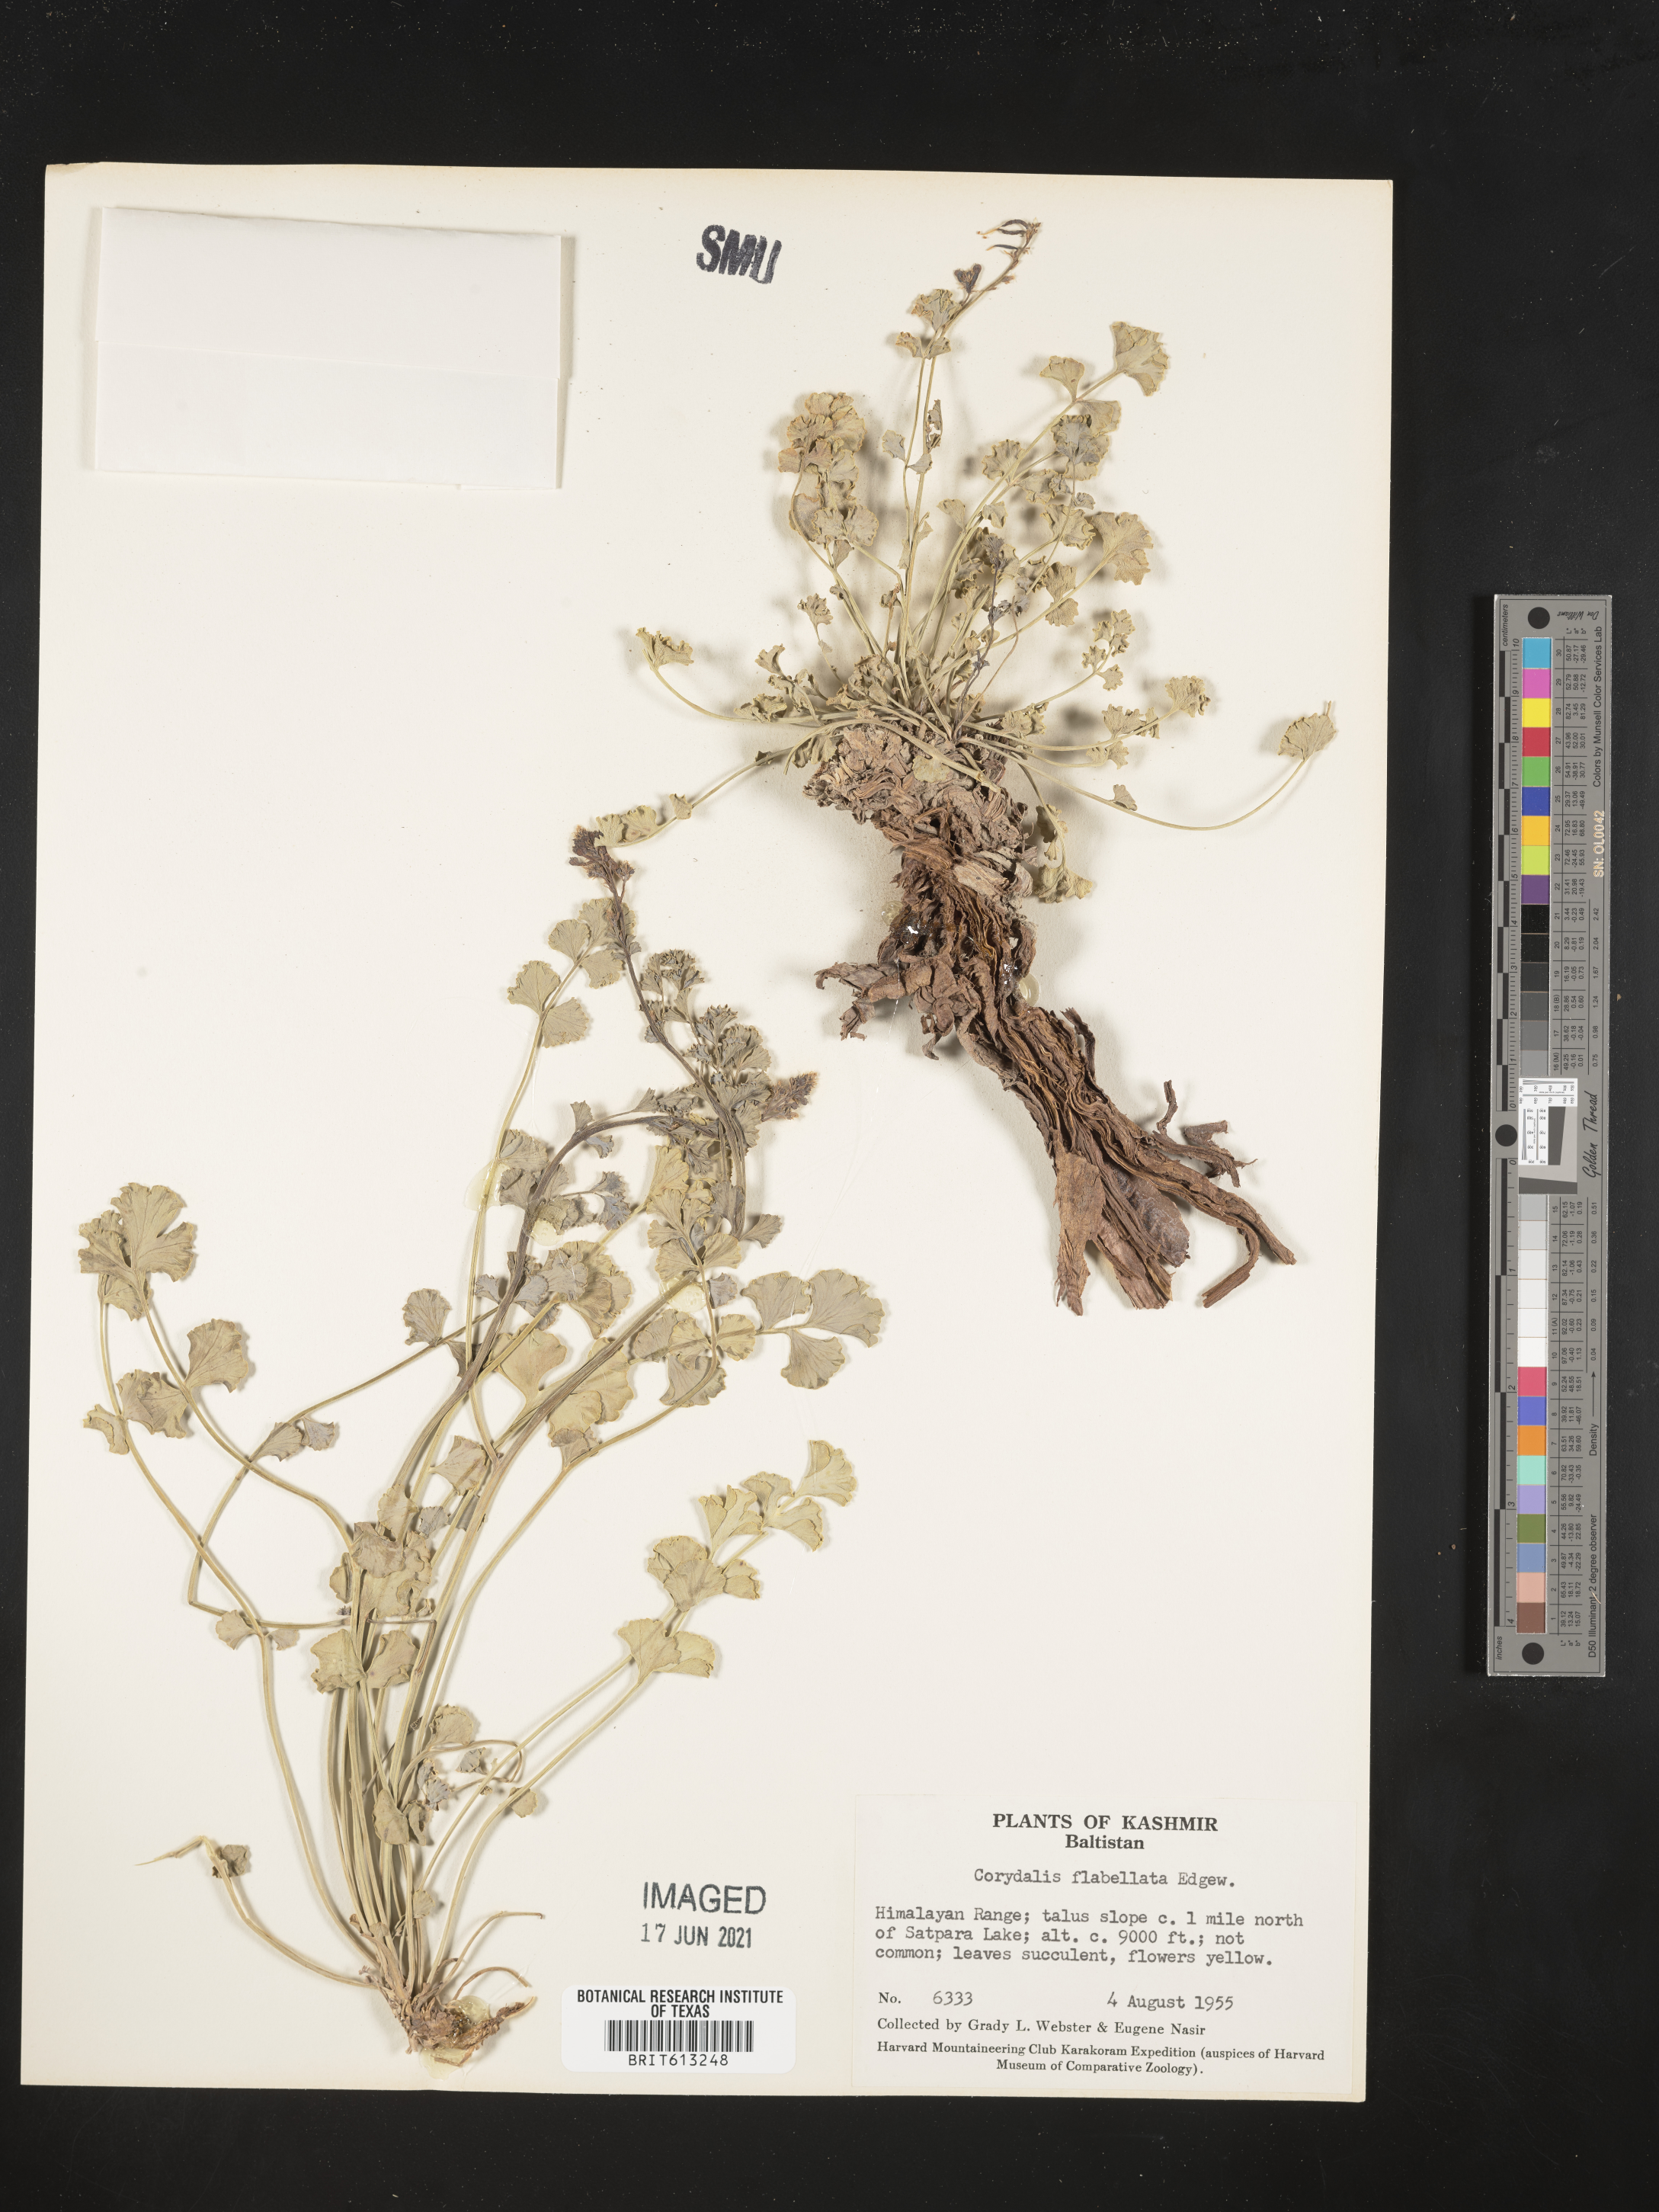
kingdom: Plantae
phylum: Tracheophyta
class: Magnoliopsida
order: Ranunculales
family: Papaveraceae
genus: Corydalis
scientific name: Corydalis flabellata
